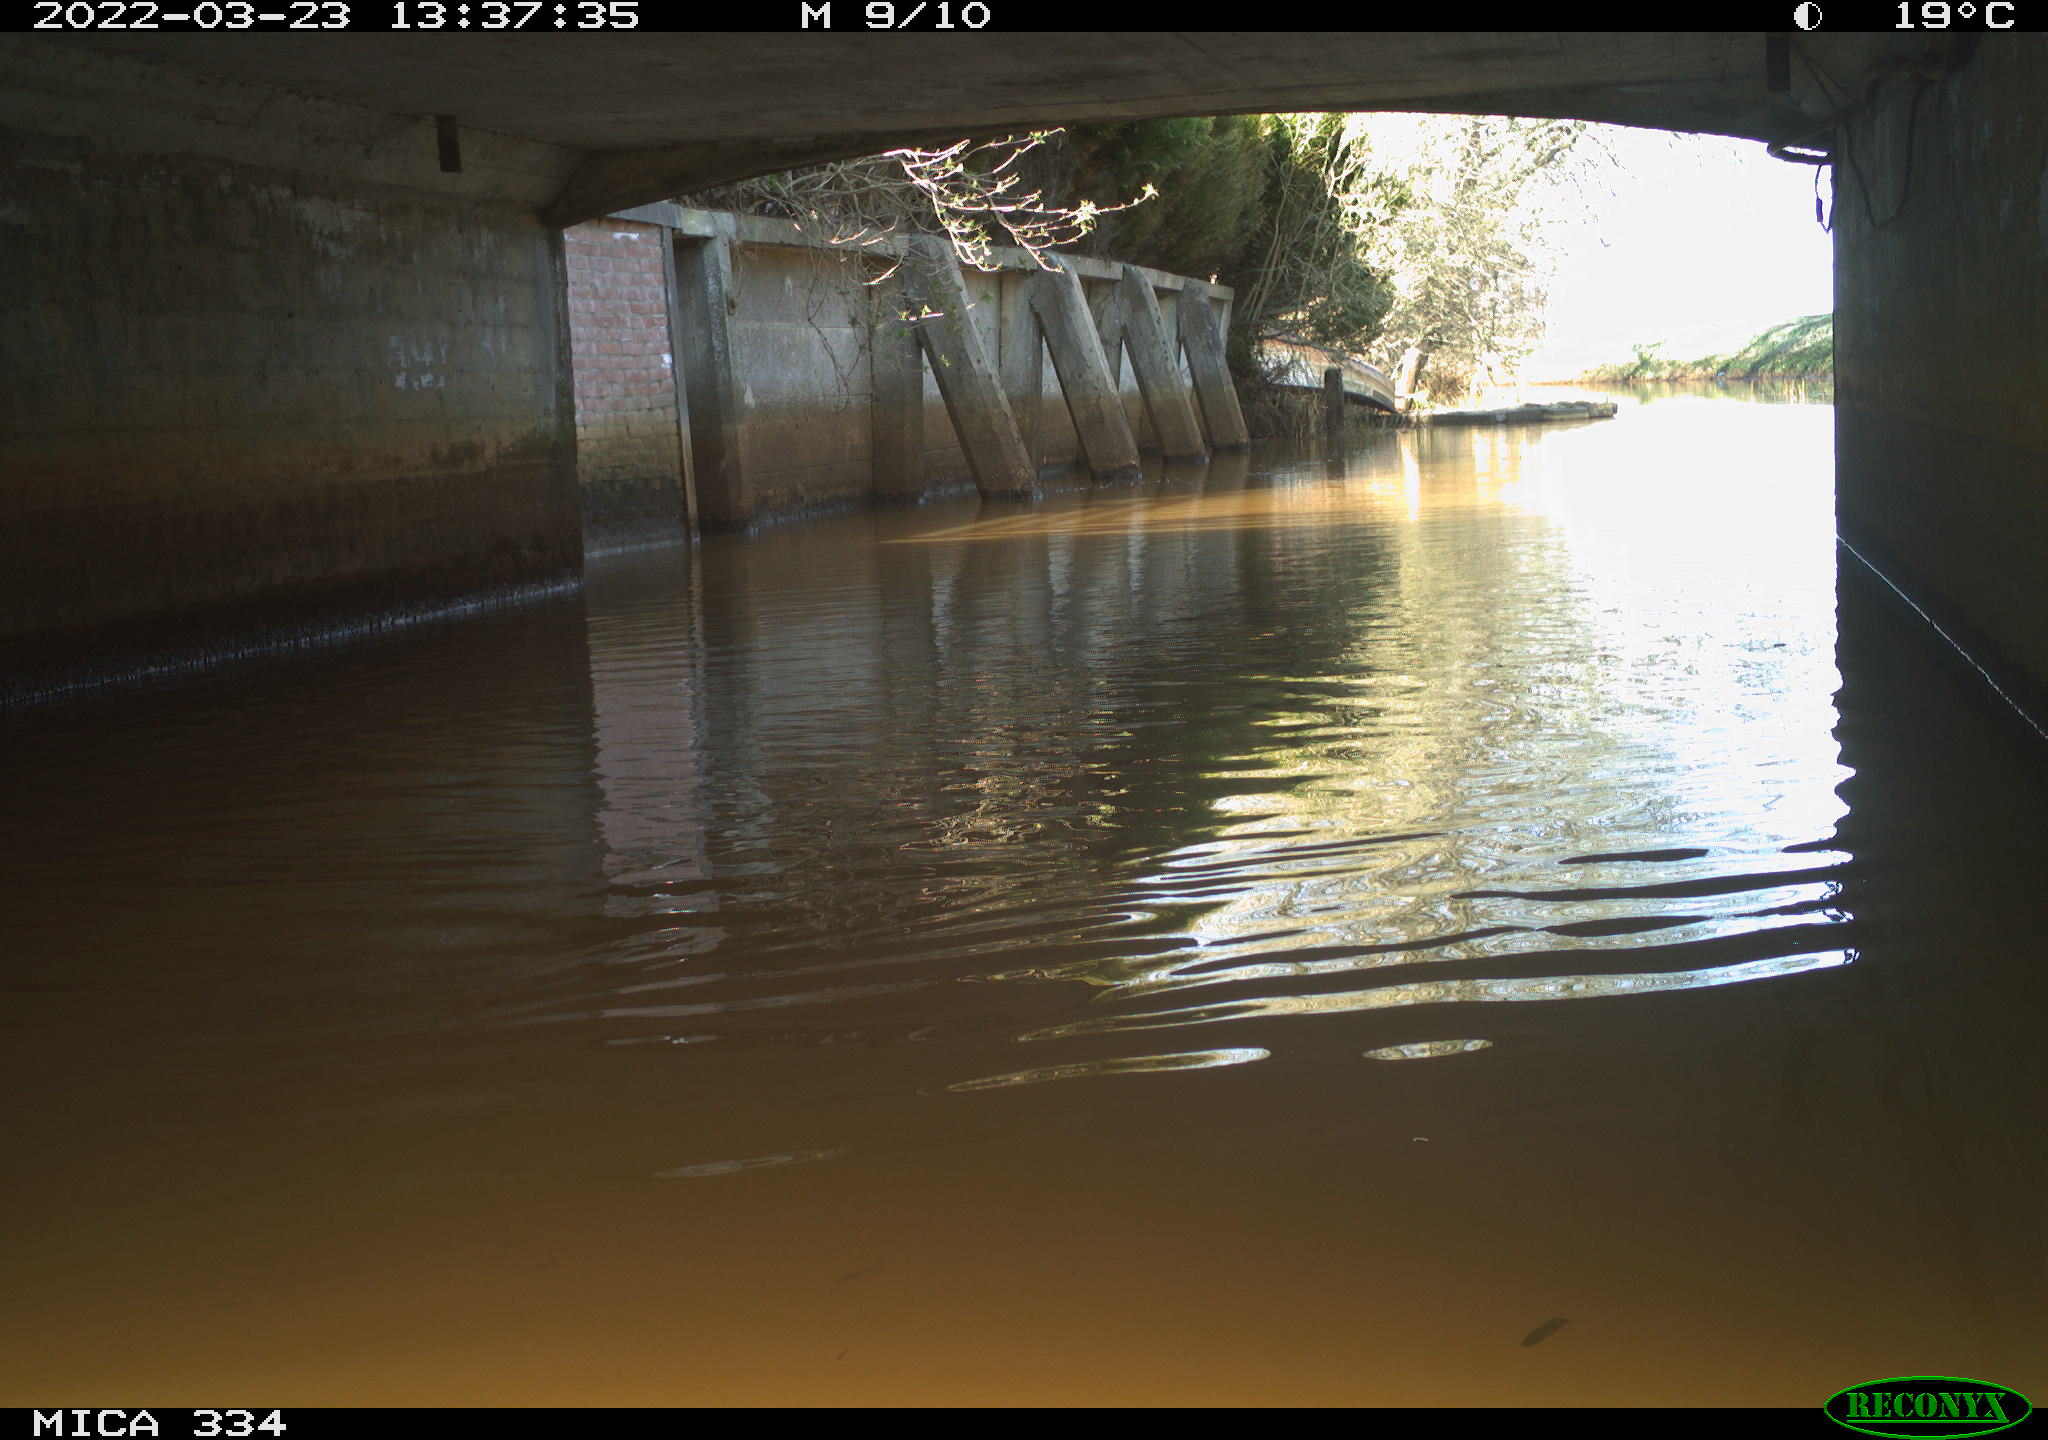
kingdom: Animalia
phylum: Chordata
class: Aves
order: Anseriformes
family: Anatidae
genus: Anas
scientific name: Anas platyrhynchos
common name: Mallard
